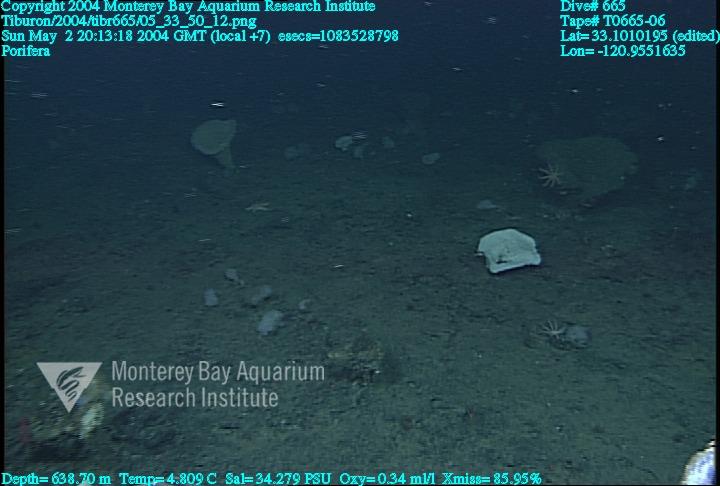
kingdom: Animalia
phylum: Porifera
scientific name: Porifera
